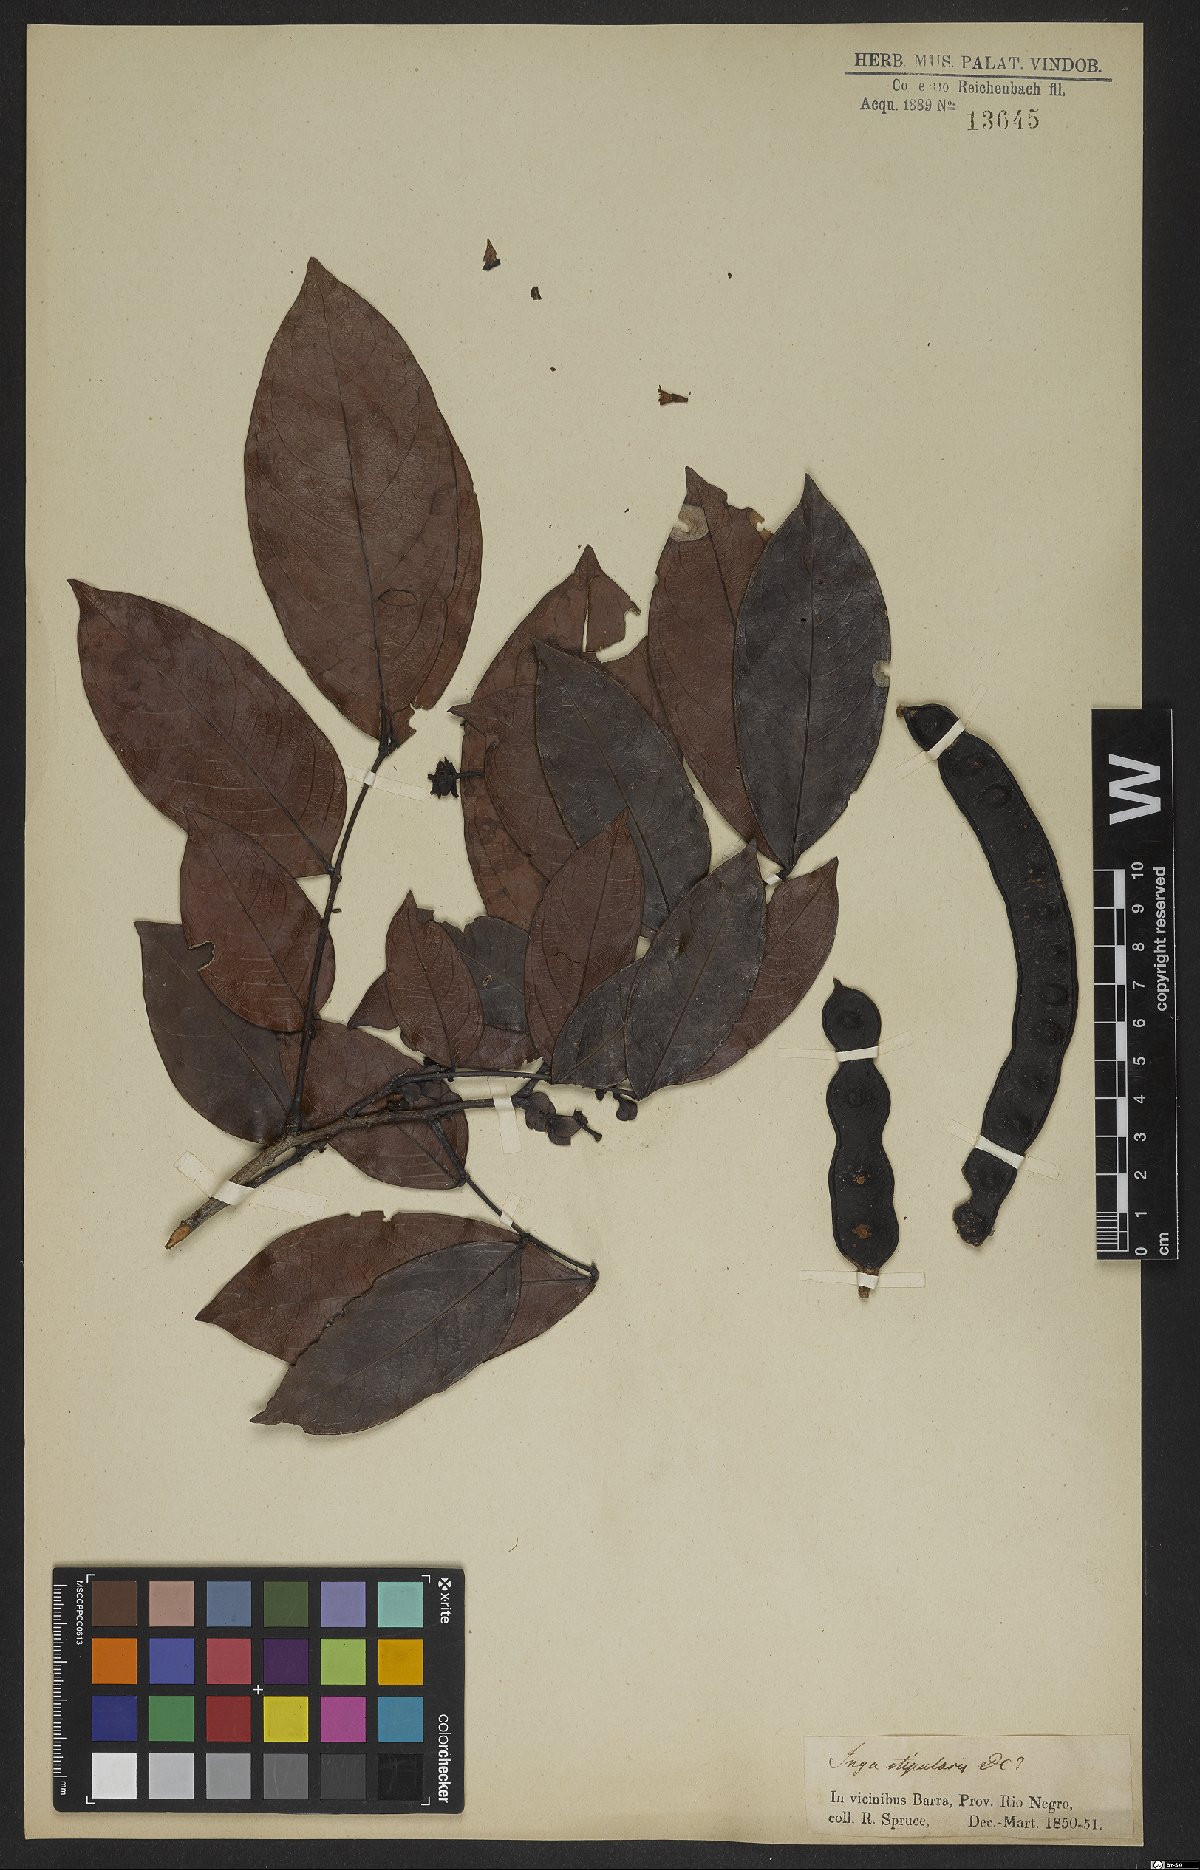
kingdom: Plantae
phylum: Tracheophyta
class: Magnoliopsida
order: Fabales
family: Fabaceae
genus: Inga
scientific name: Inga stipularis
